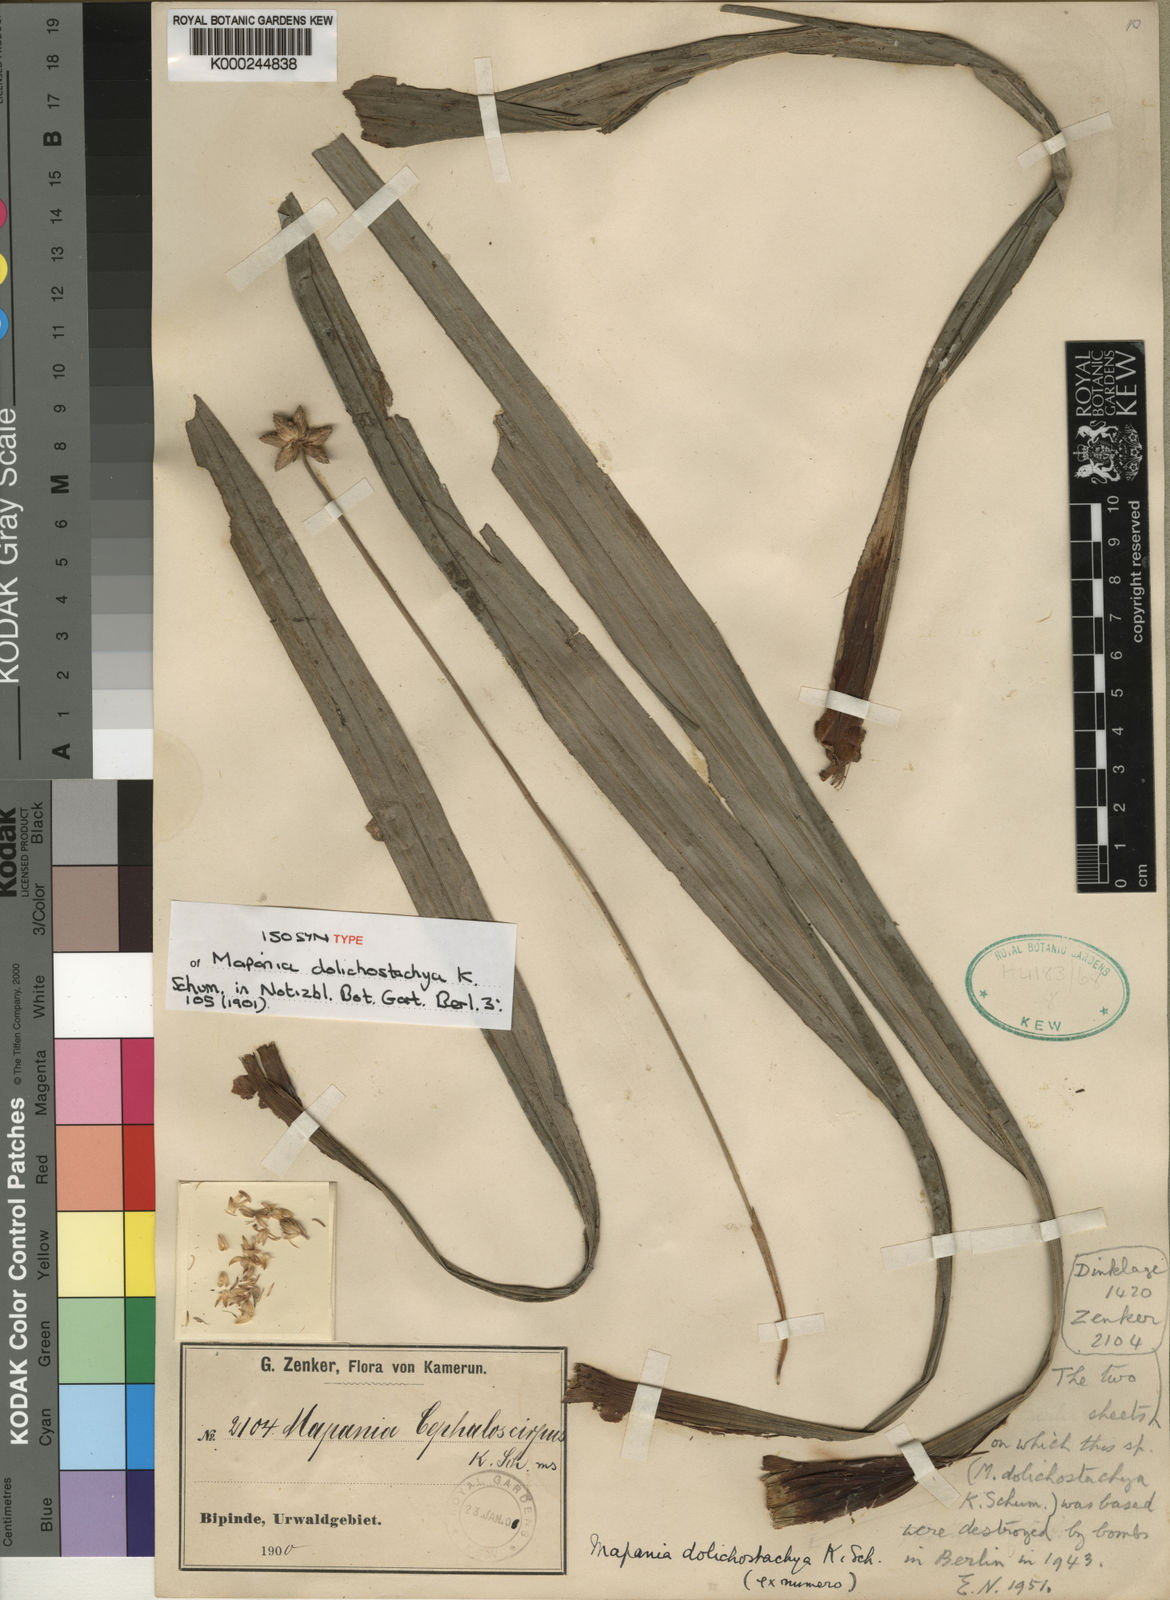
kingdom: Plantae
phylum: Tracheophyta
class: Liliopsida
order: Poales
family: Cyperaceae
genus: Mapania
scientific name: Mapania africana
